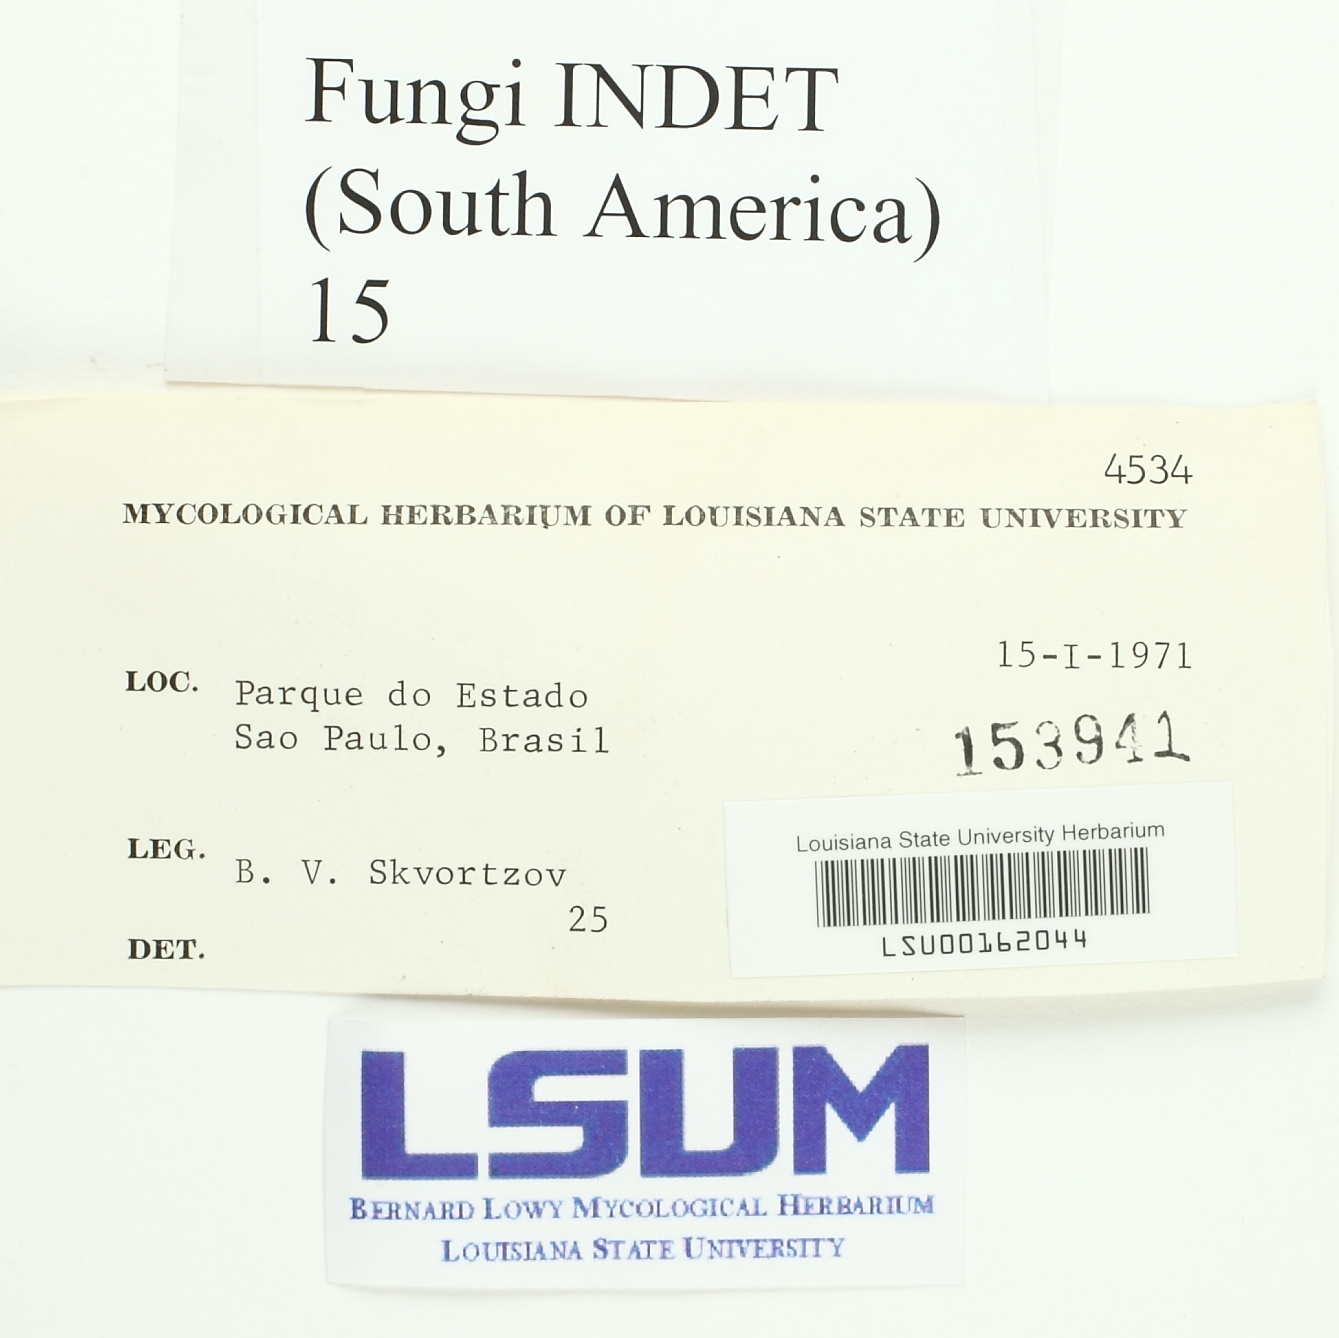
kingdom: Fungi
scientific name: Fungi
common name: Fungi
